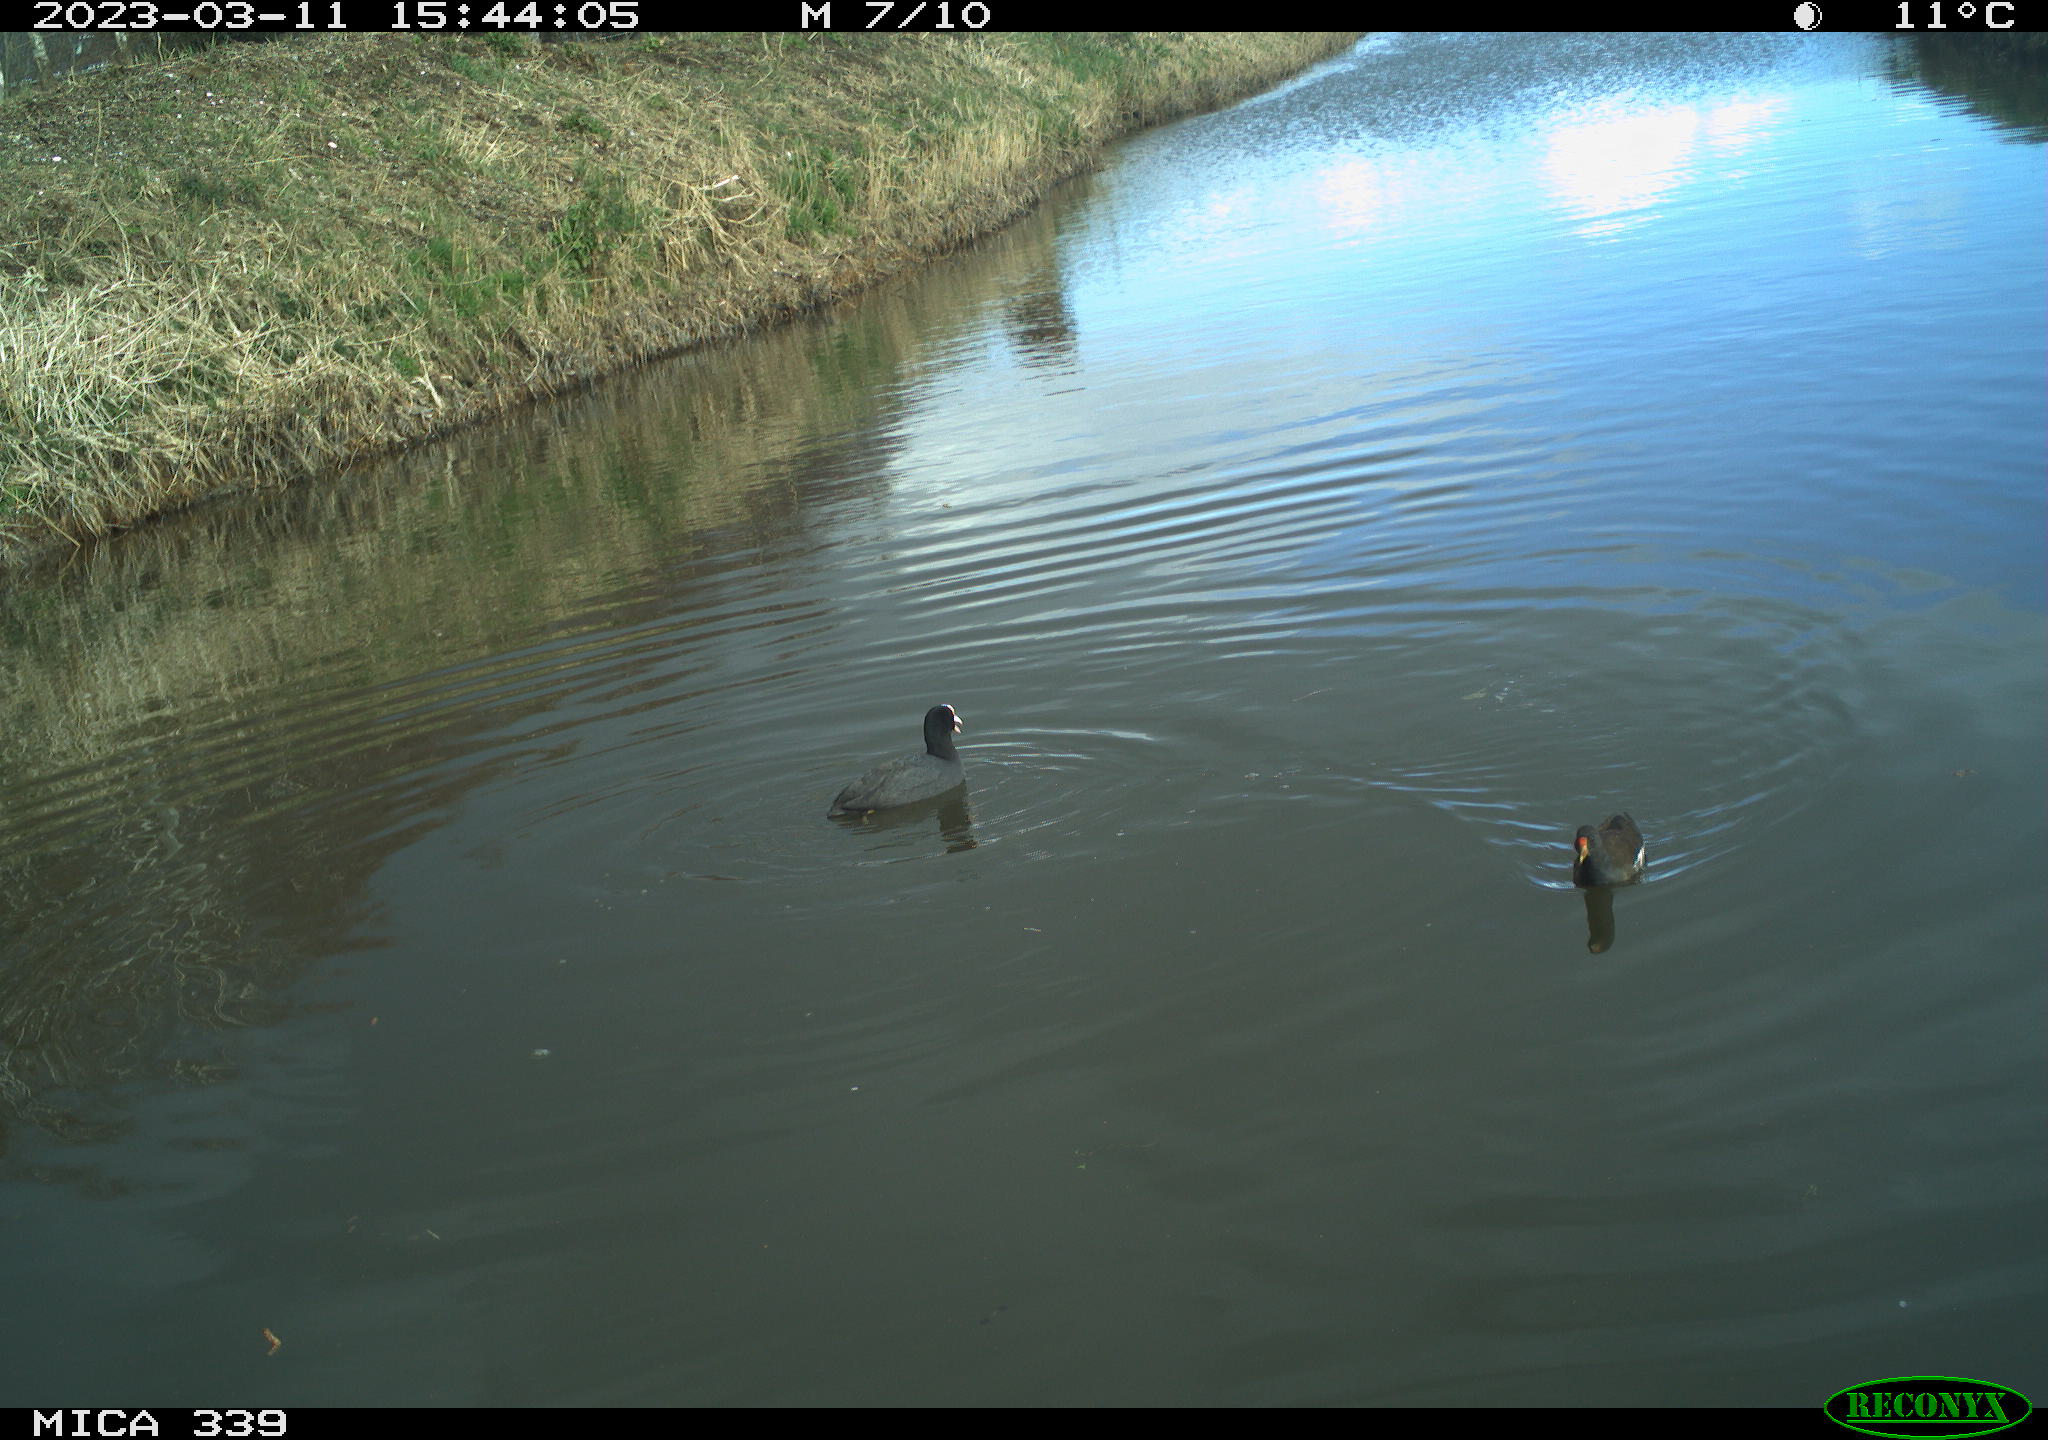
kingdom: Animalia
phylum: Chordata
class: Aves
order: Gruiformes
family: Rallidae
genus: Gallinula
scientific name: Gallinula chloropus
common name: Common moorhen
